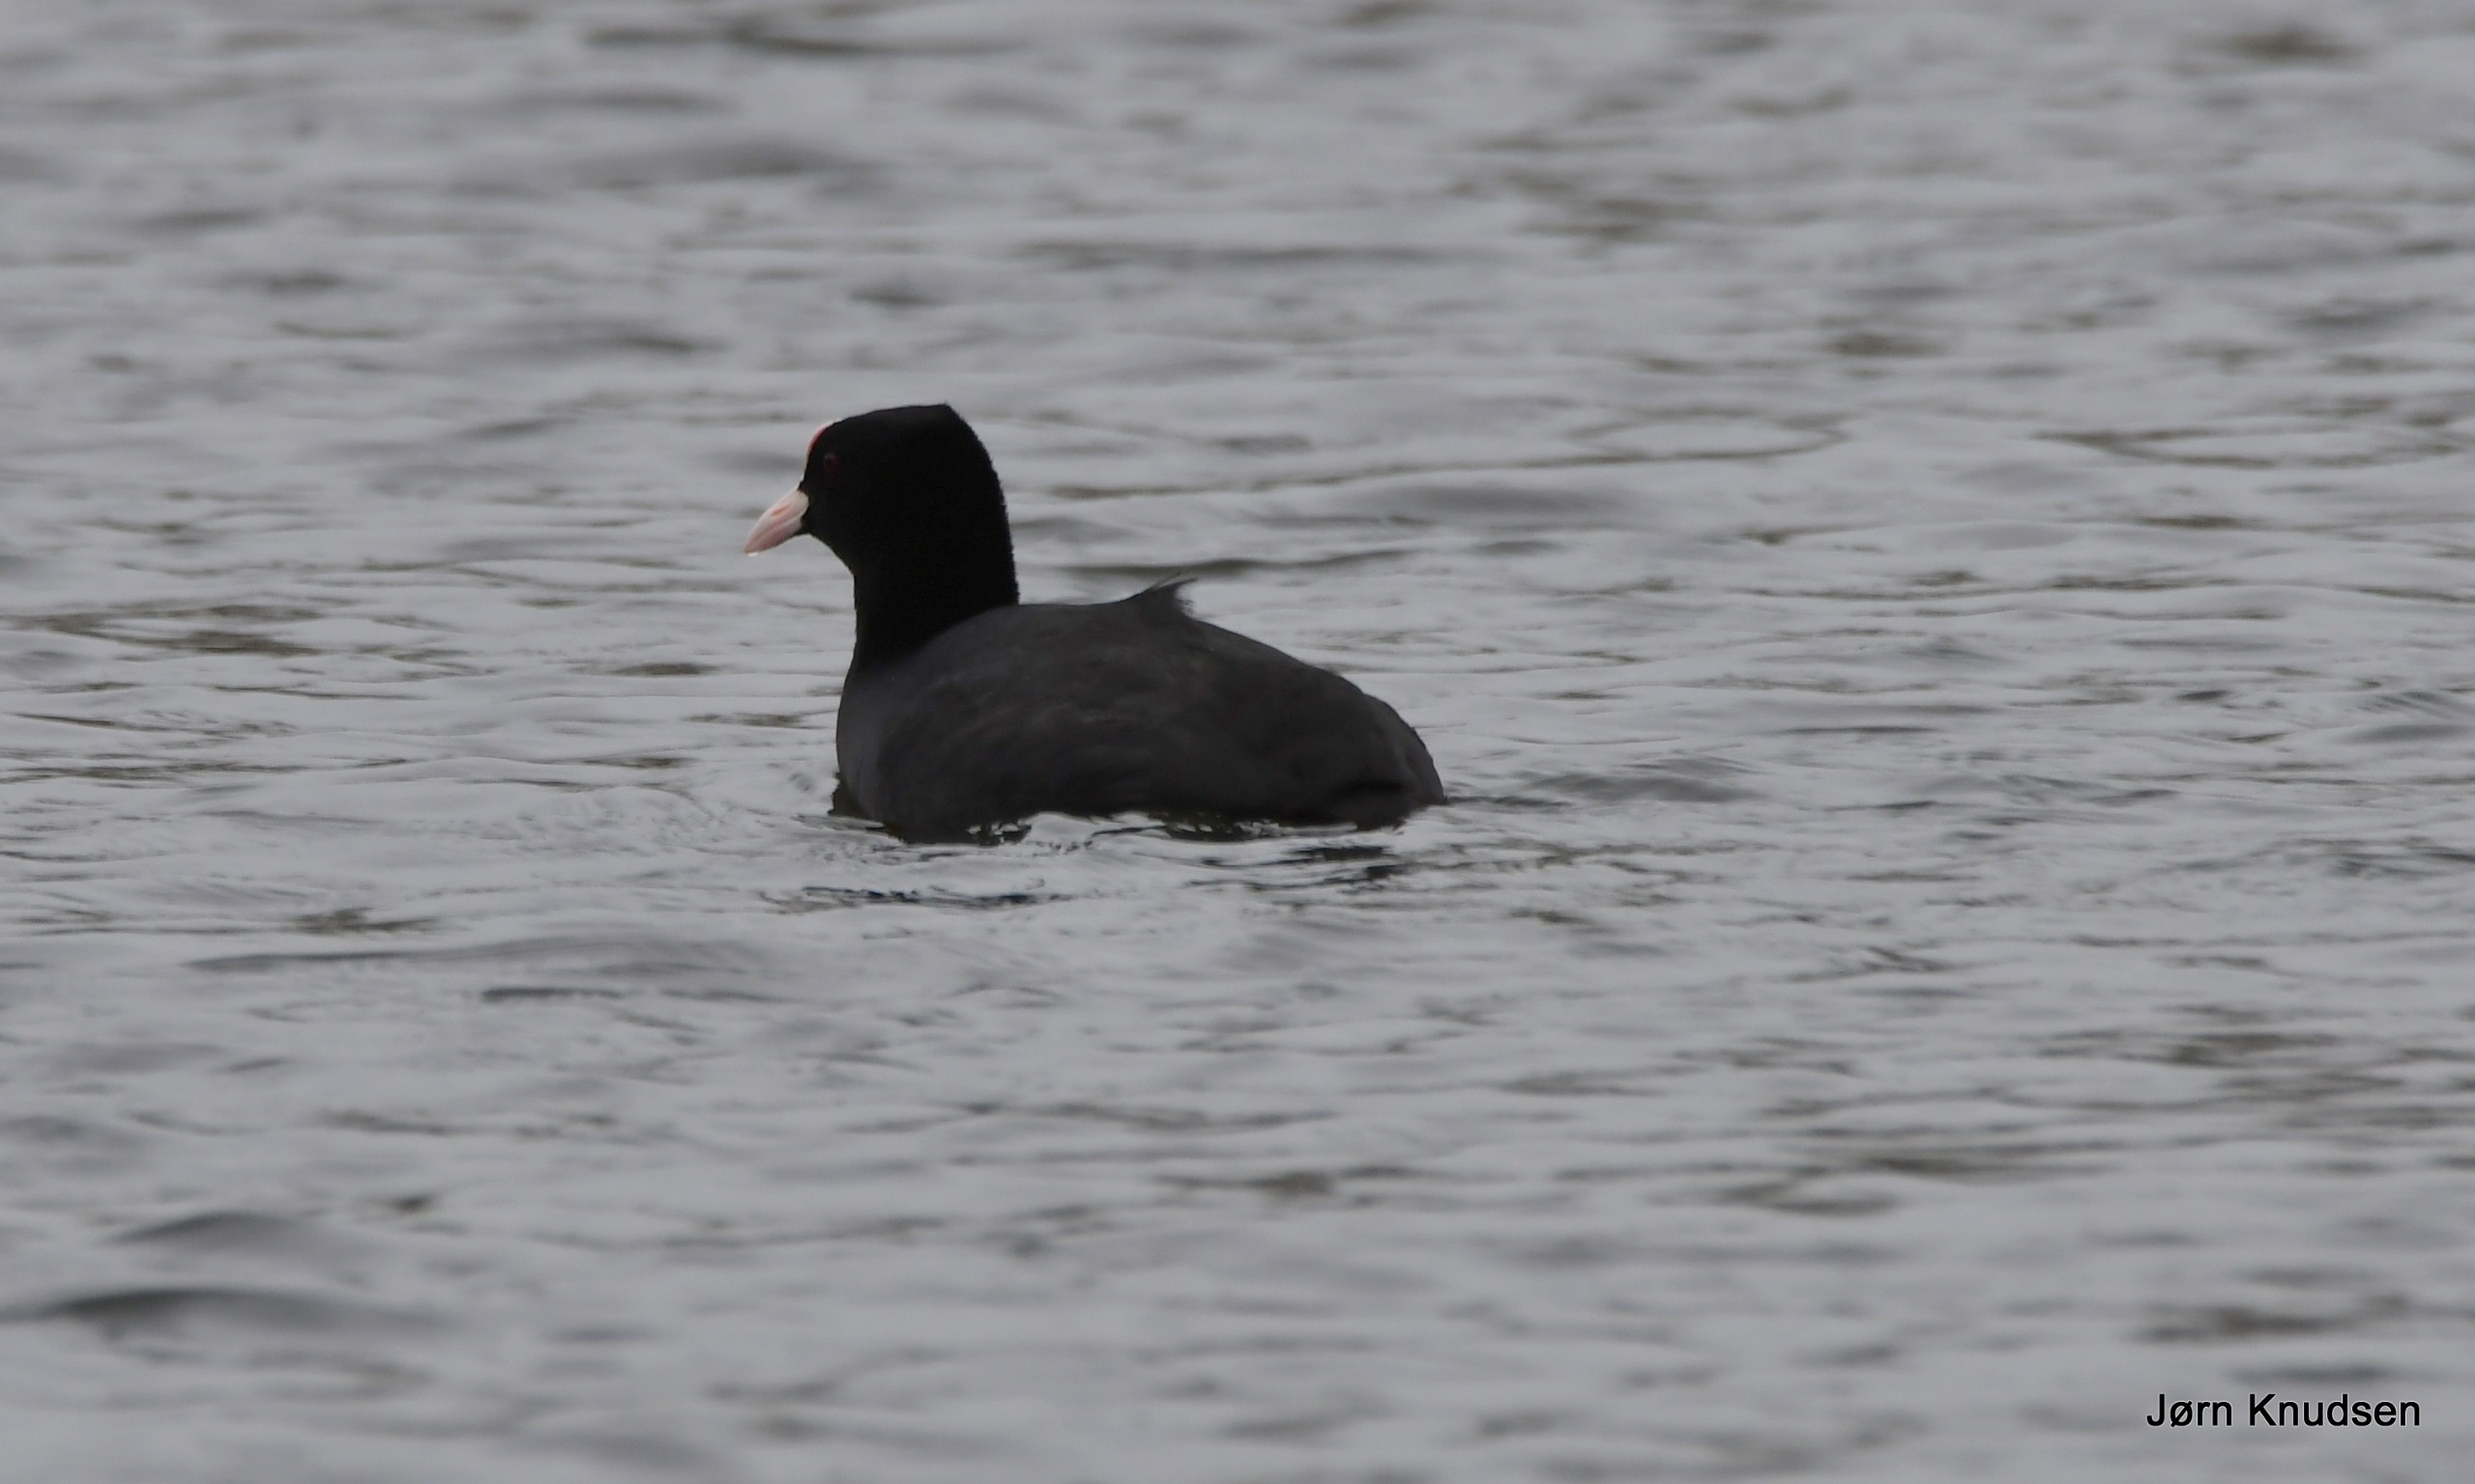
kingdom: Animalia
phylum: Chordata
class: Aves
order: Gruiformes
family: Rallidae
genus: Fulica
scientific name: Fulica atra
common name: Blishøne
